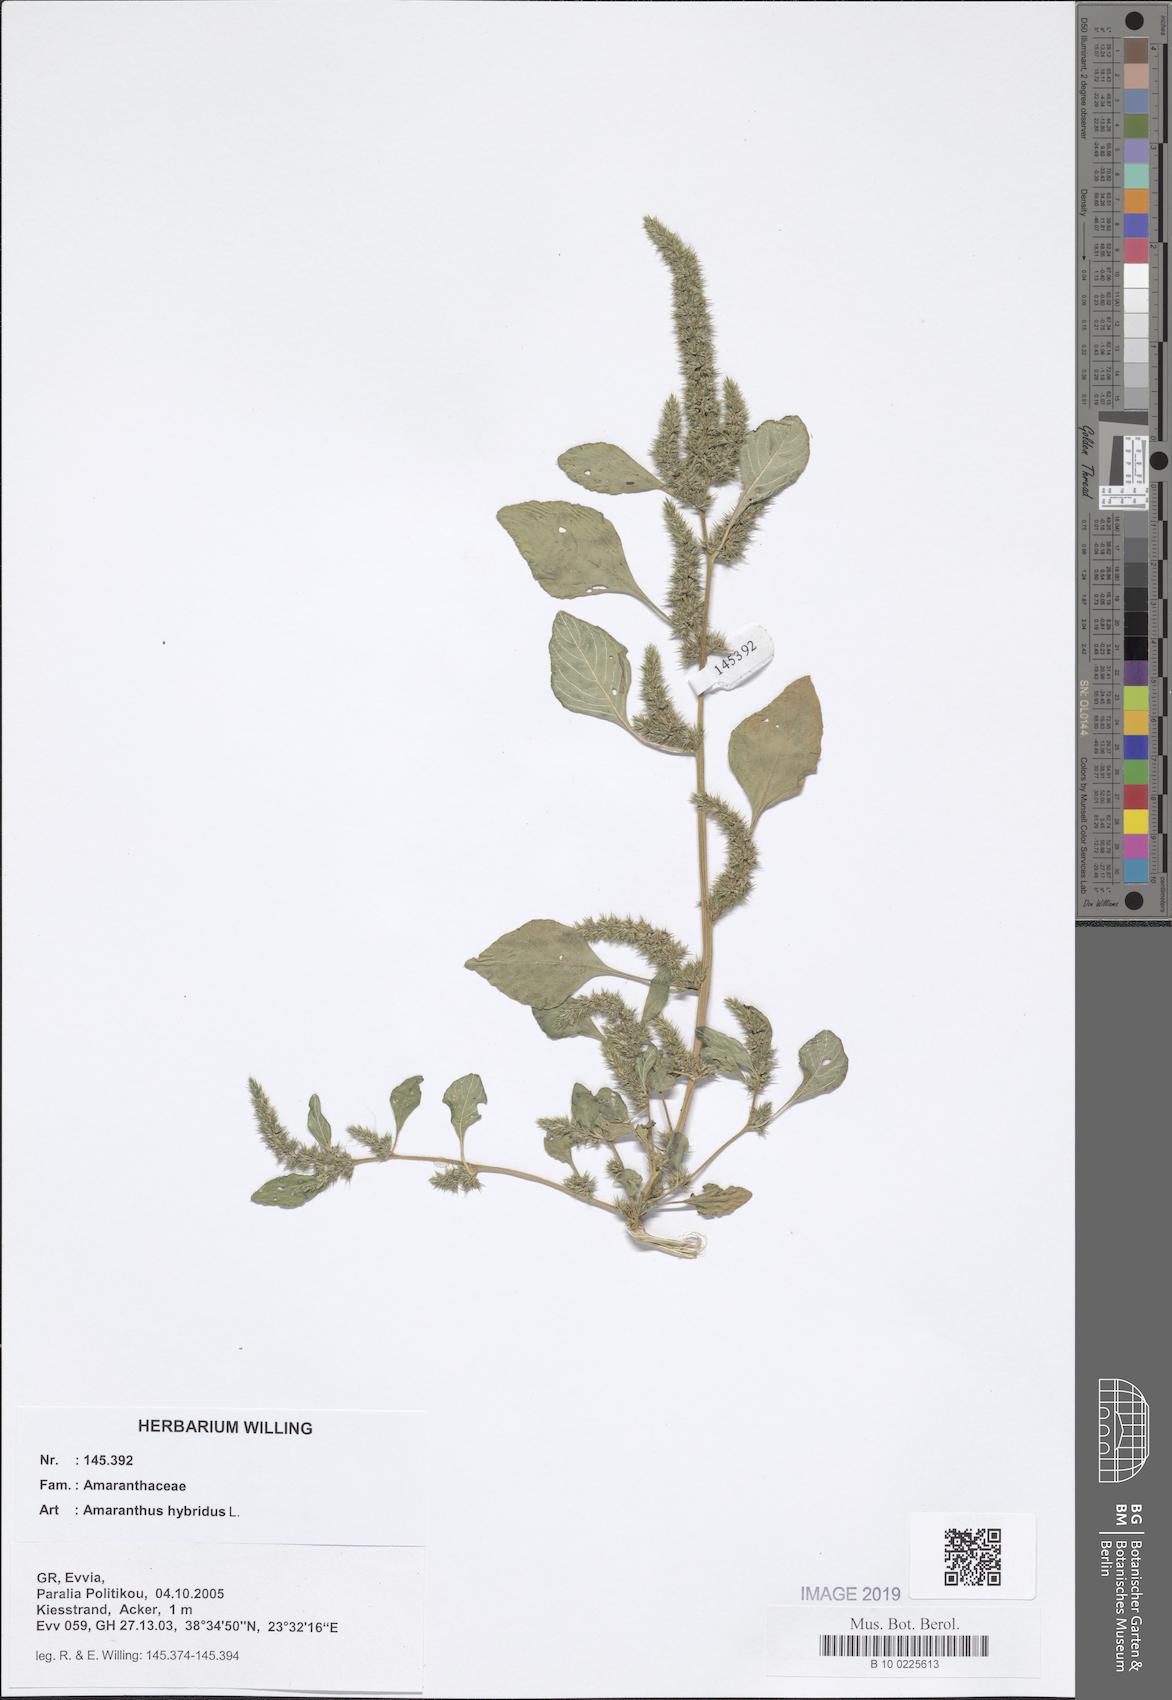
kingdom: Plantae
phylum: Tracheophyta
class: Magnoliopsida
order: Caryophyllales
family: Amaranthaceae
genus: Amaranthus
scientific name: Amaranthus hybridus
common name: Green amaranth
